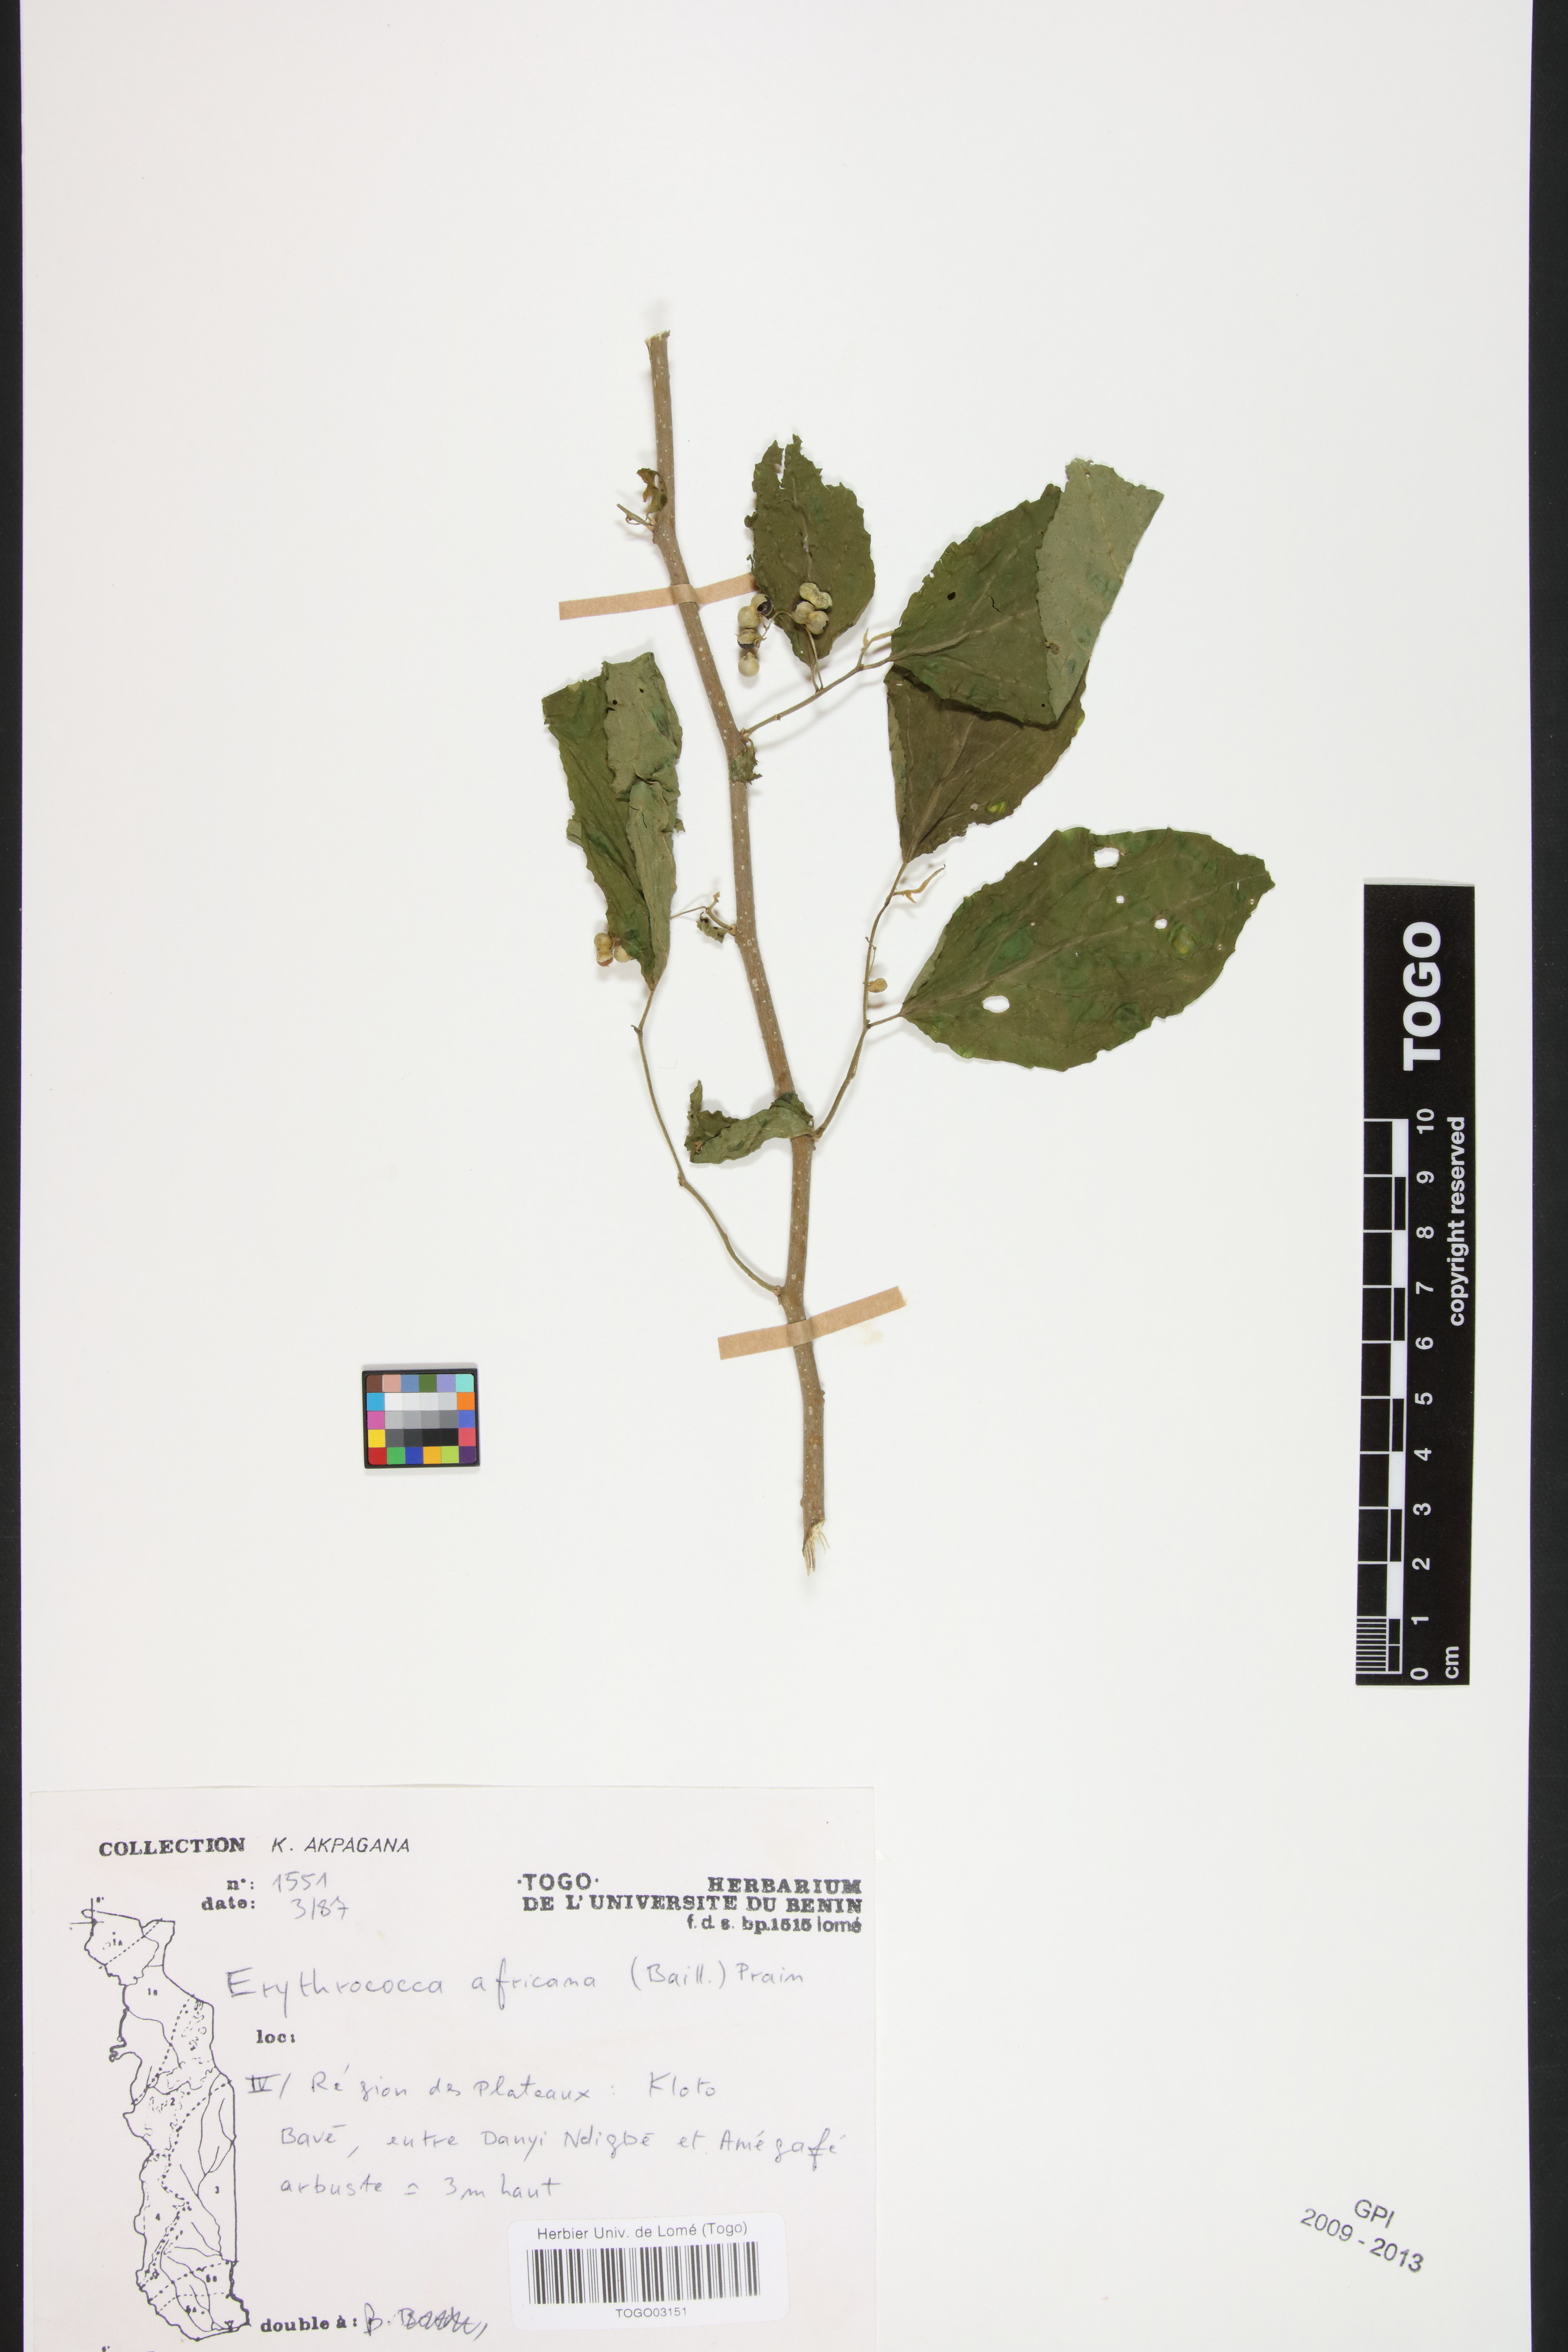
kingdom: Plantae
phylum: Tracheophyta
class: Magnoliopsida
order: Malpighiales
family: Euphorbiaceae
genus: Erythrococca
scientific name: Erythrococca africana
